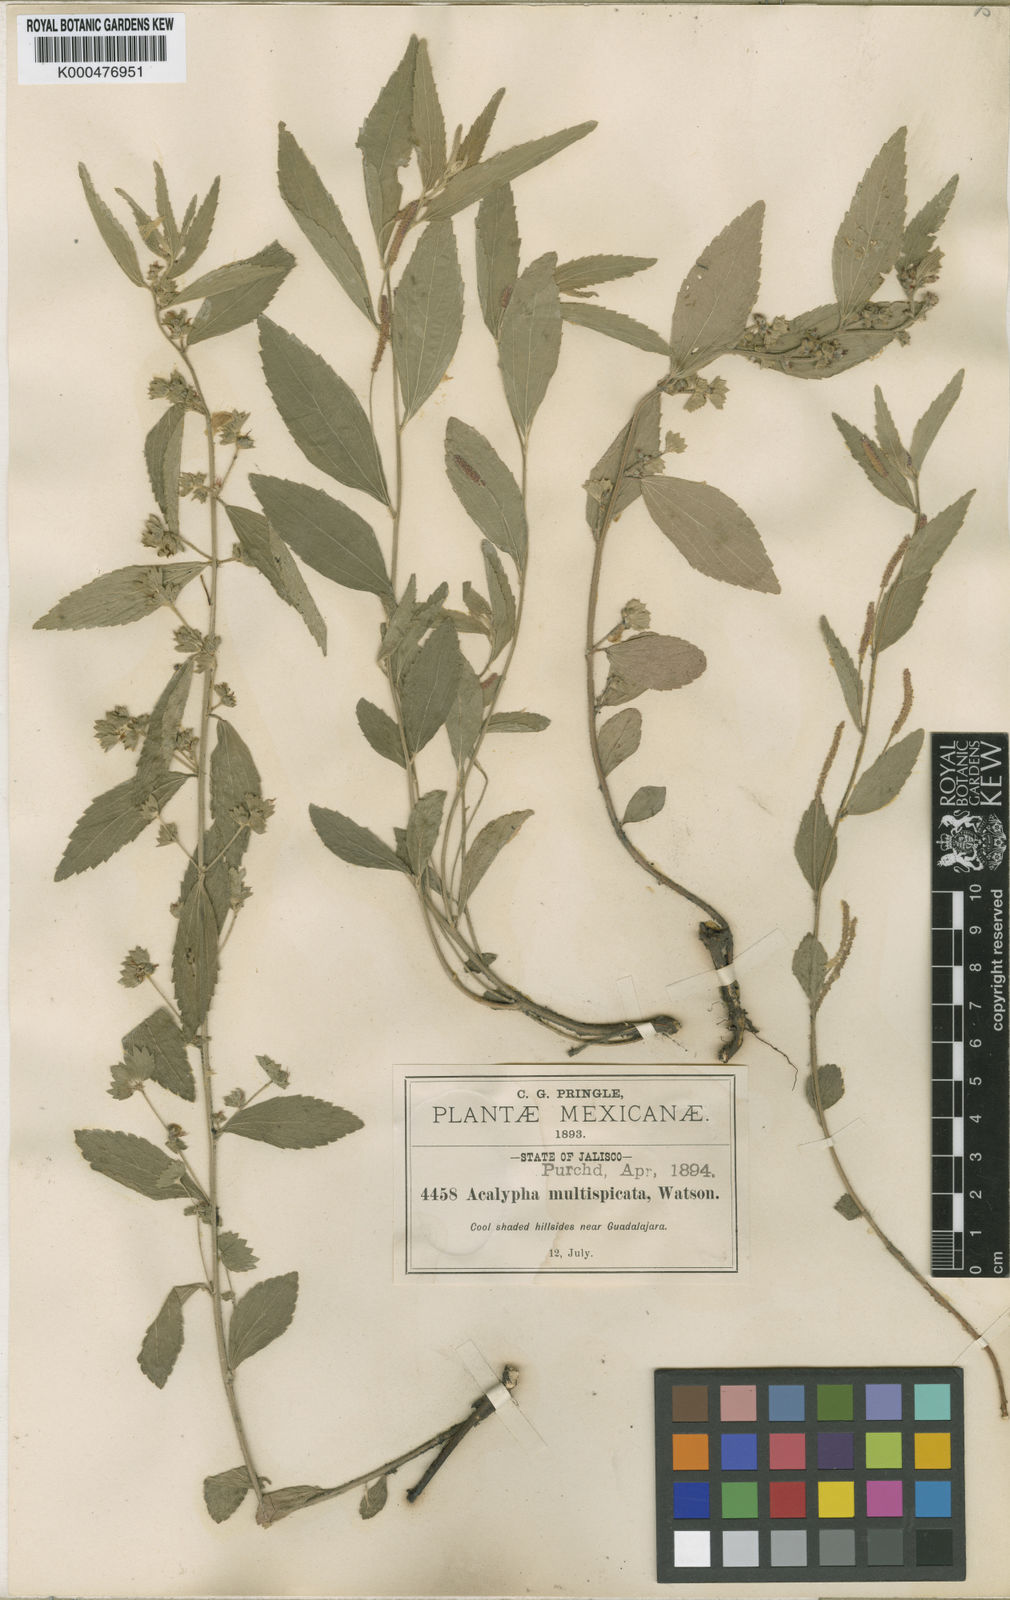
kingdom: Plantae
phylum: Tracheophyta
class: Magnoliopsida
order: Malpighiales
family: Euphorbiaceae
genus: Acalypha
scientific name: Acalypha multispicata
